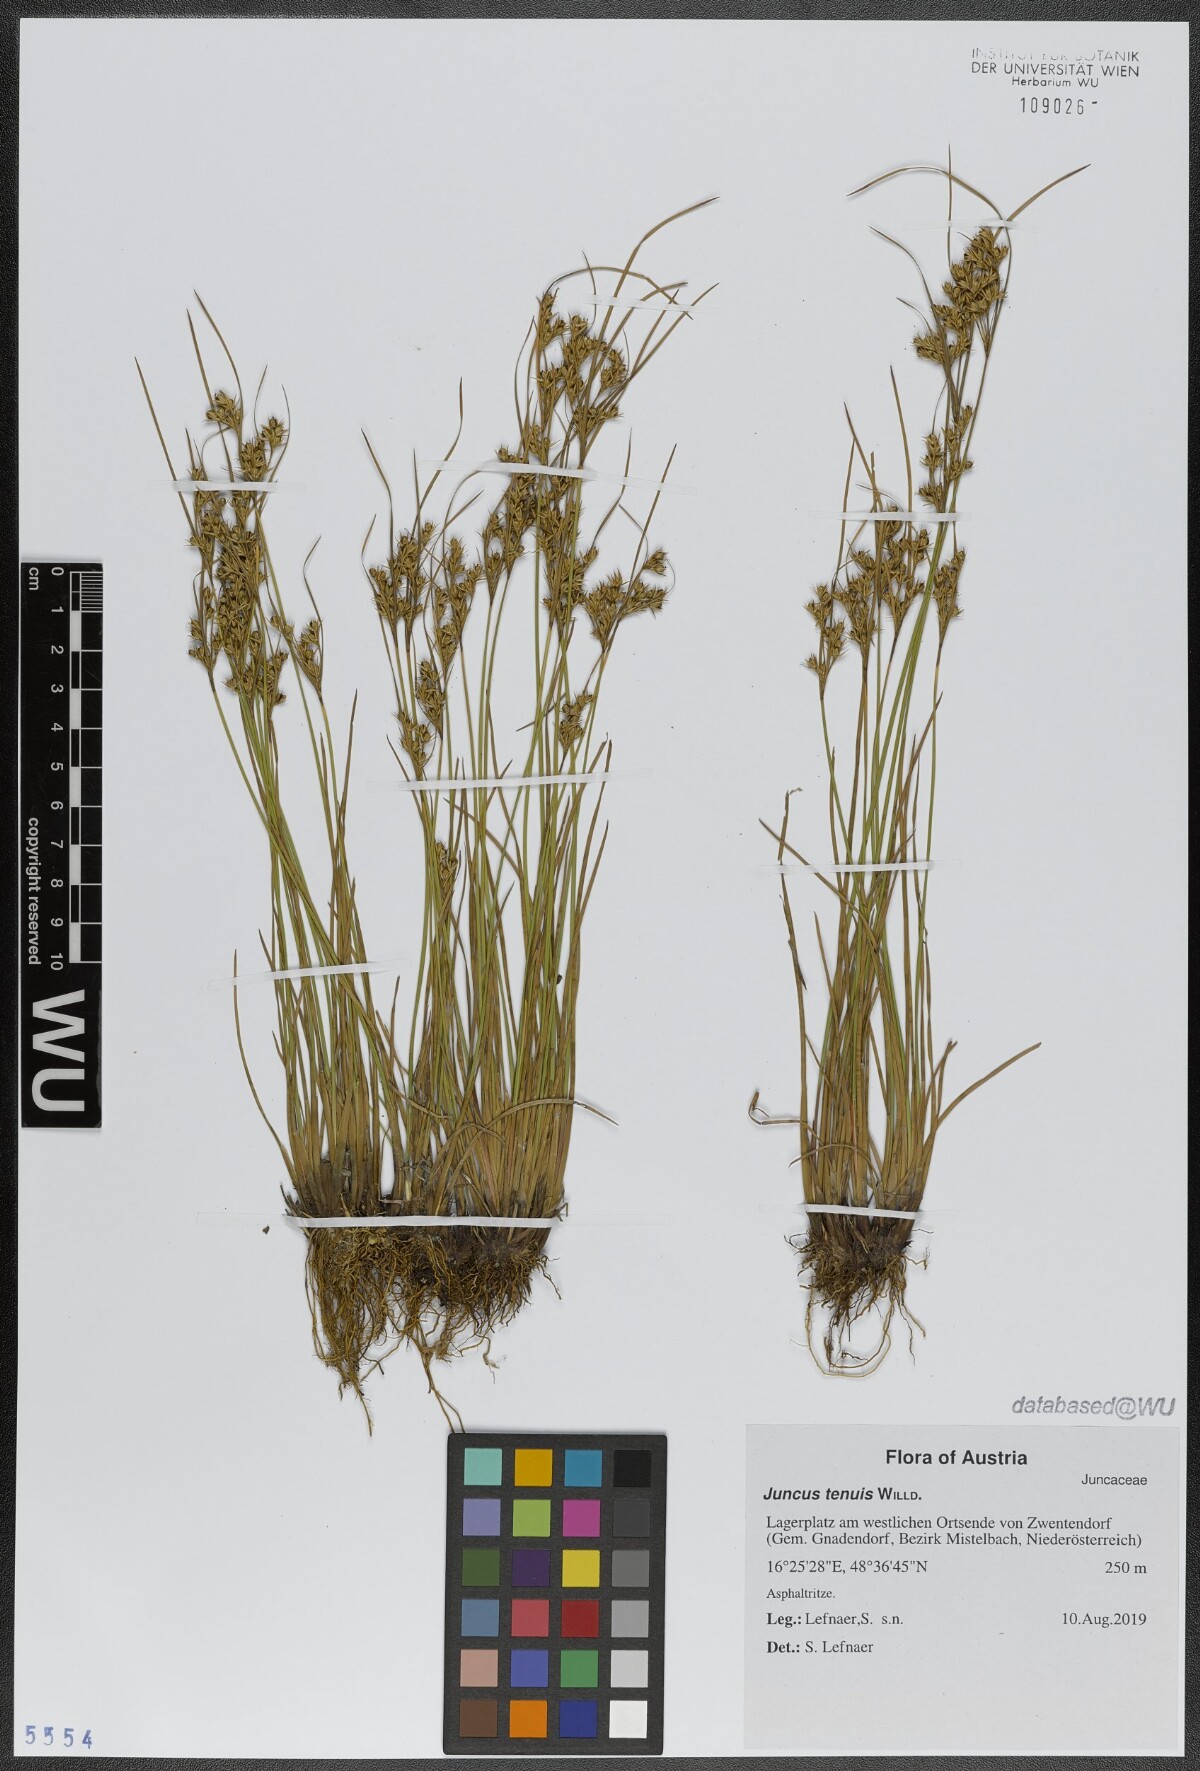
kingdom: Plantae
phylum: Tracheophyta
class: Liliopsida
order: Poales
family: Juncaceae
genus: Juncus
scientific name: Juncus tenuis
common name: Slender rush
